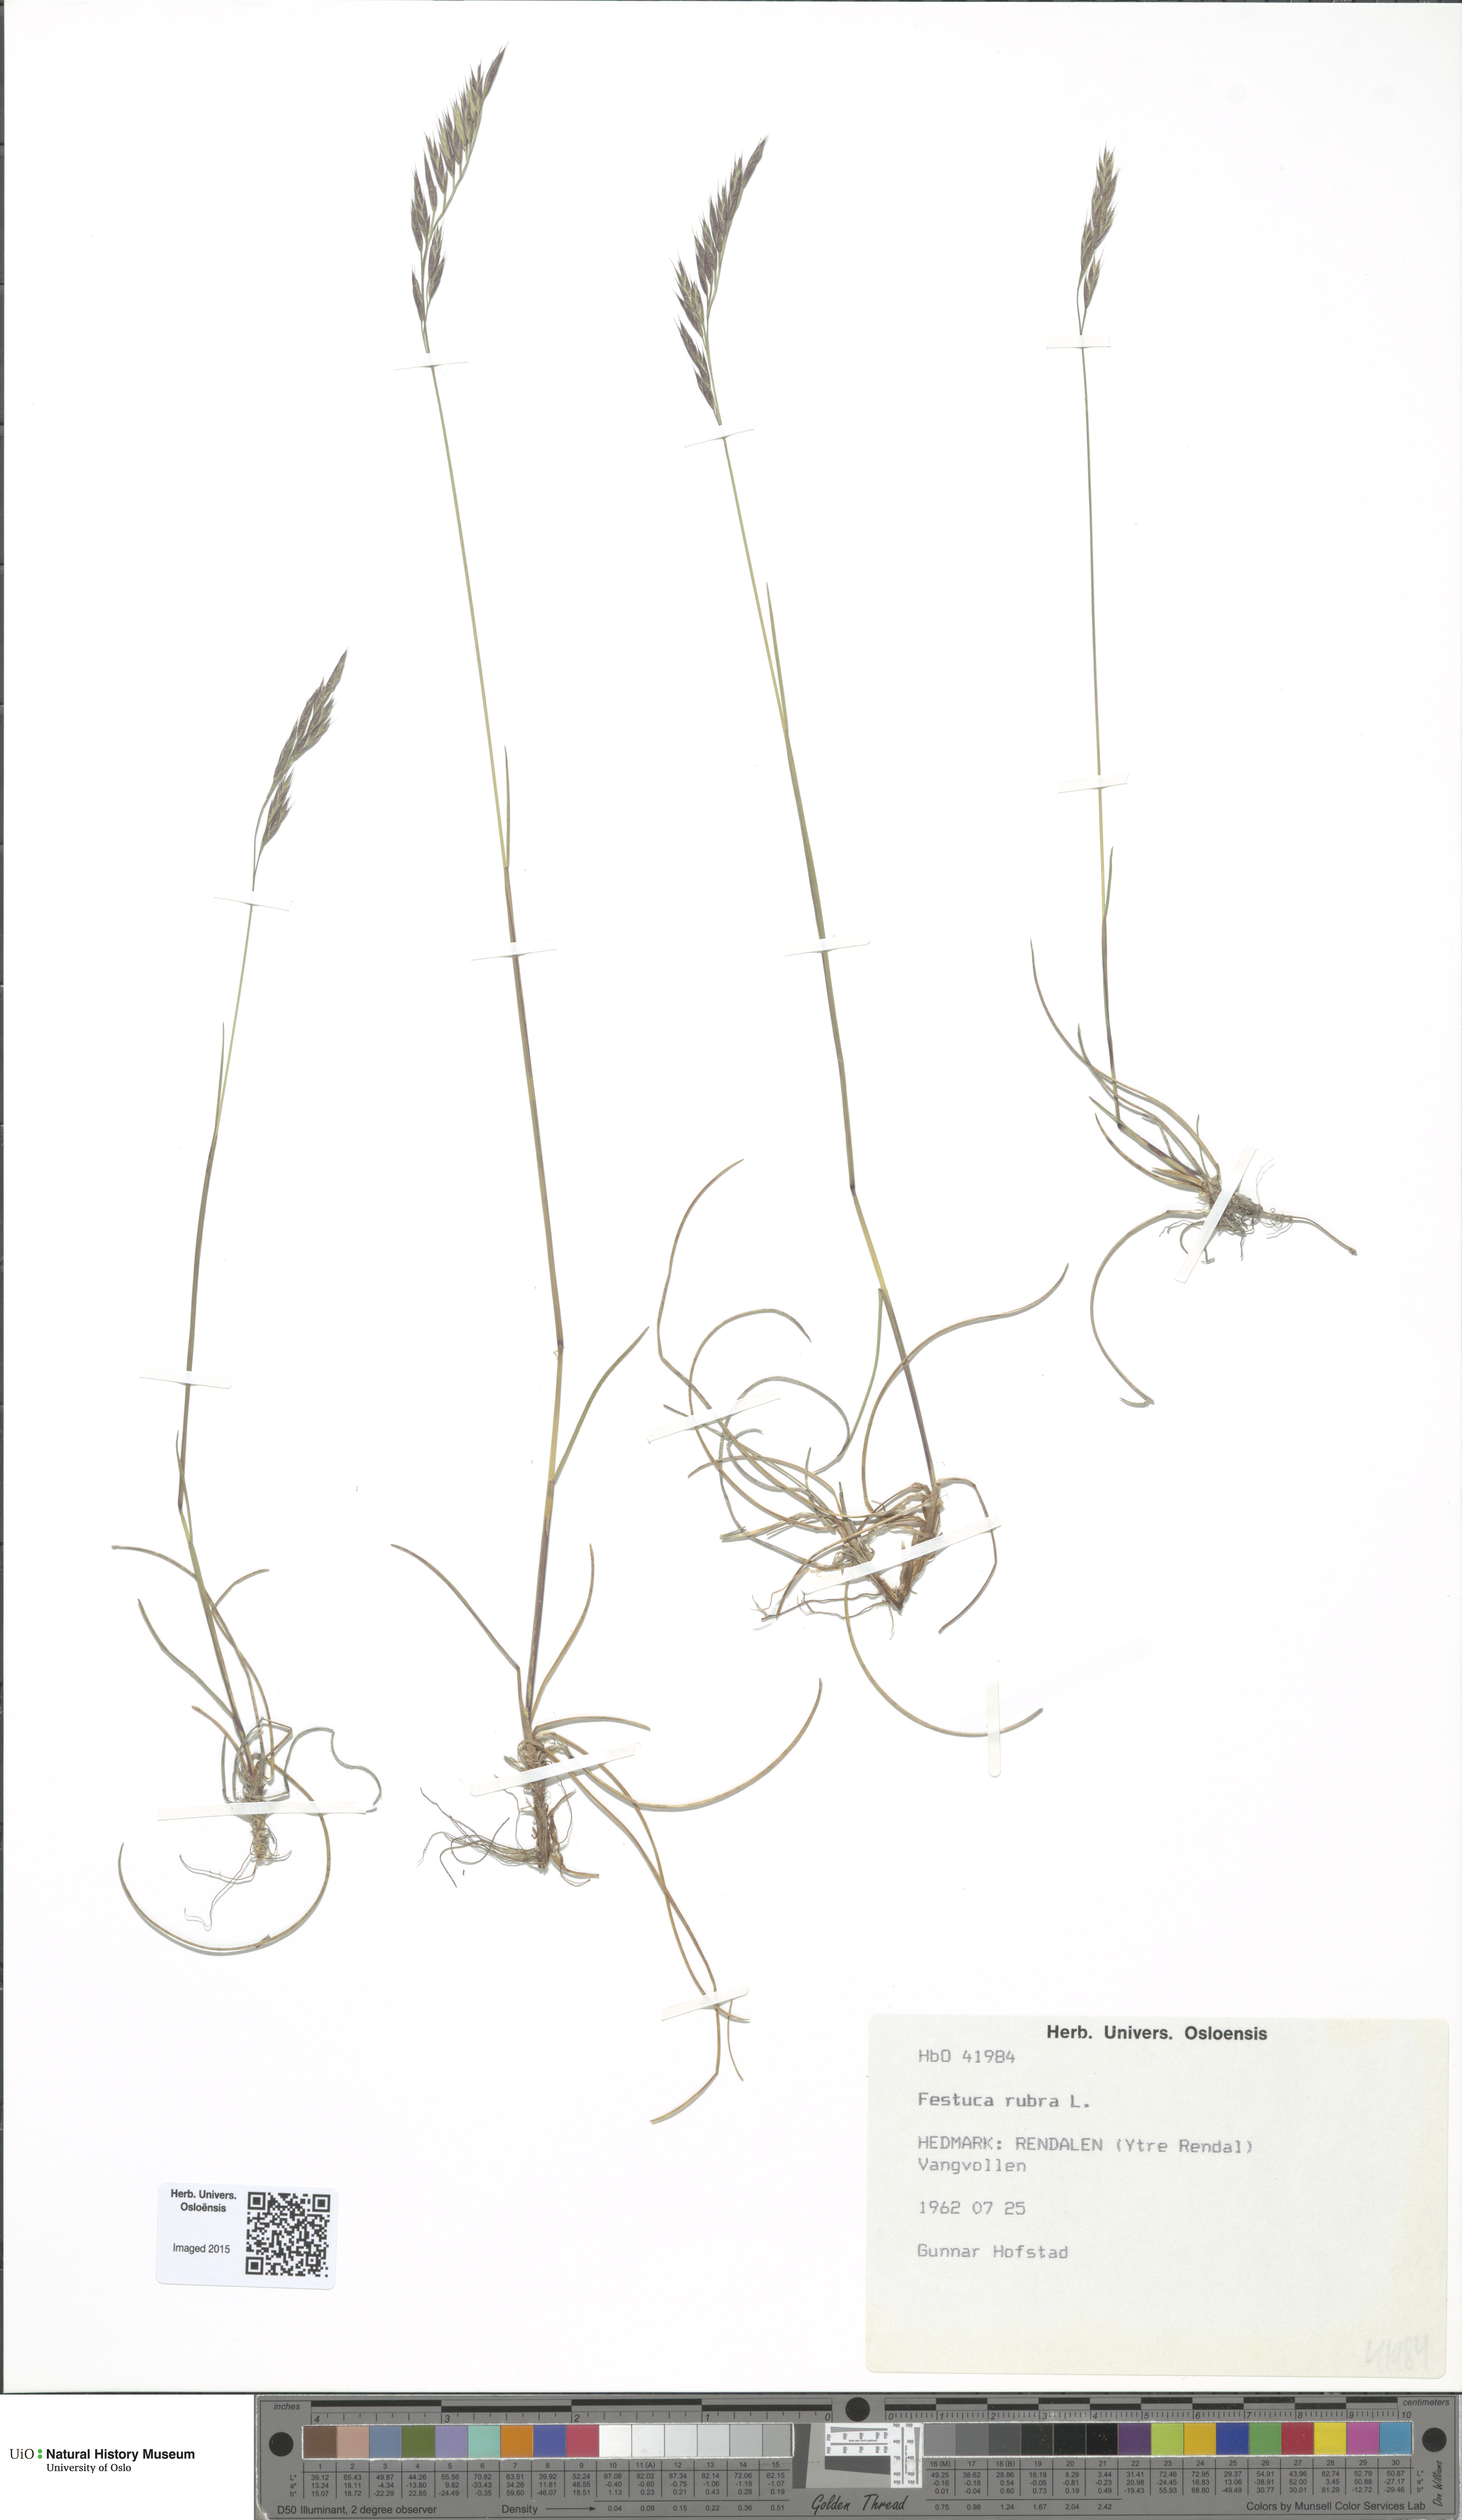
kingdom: Plantae
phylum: Tracheophyta
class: Liliopsida
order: Poales
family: Poaceae
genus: Festuca
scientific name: Festuca rubra
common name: Red fescue
